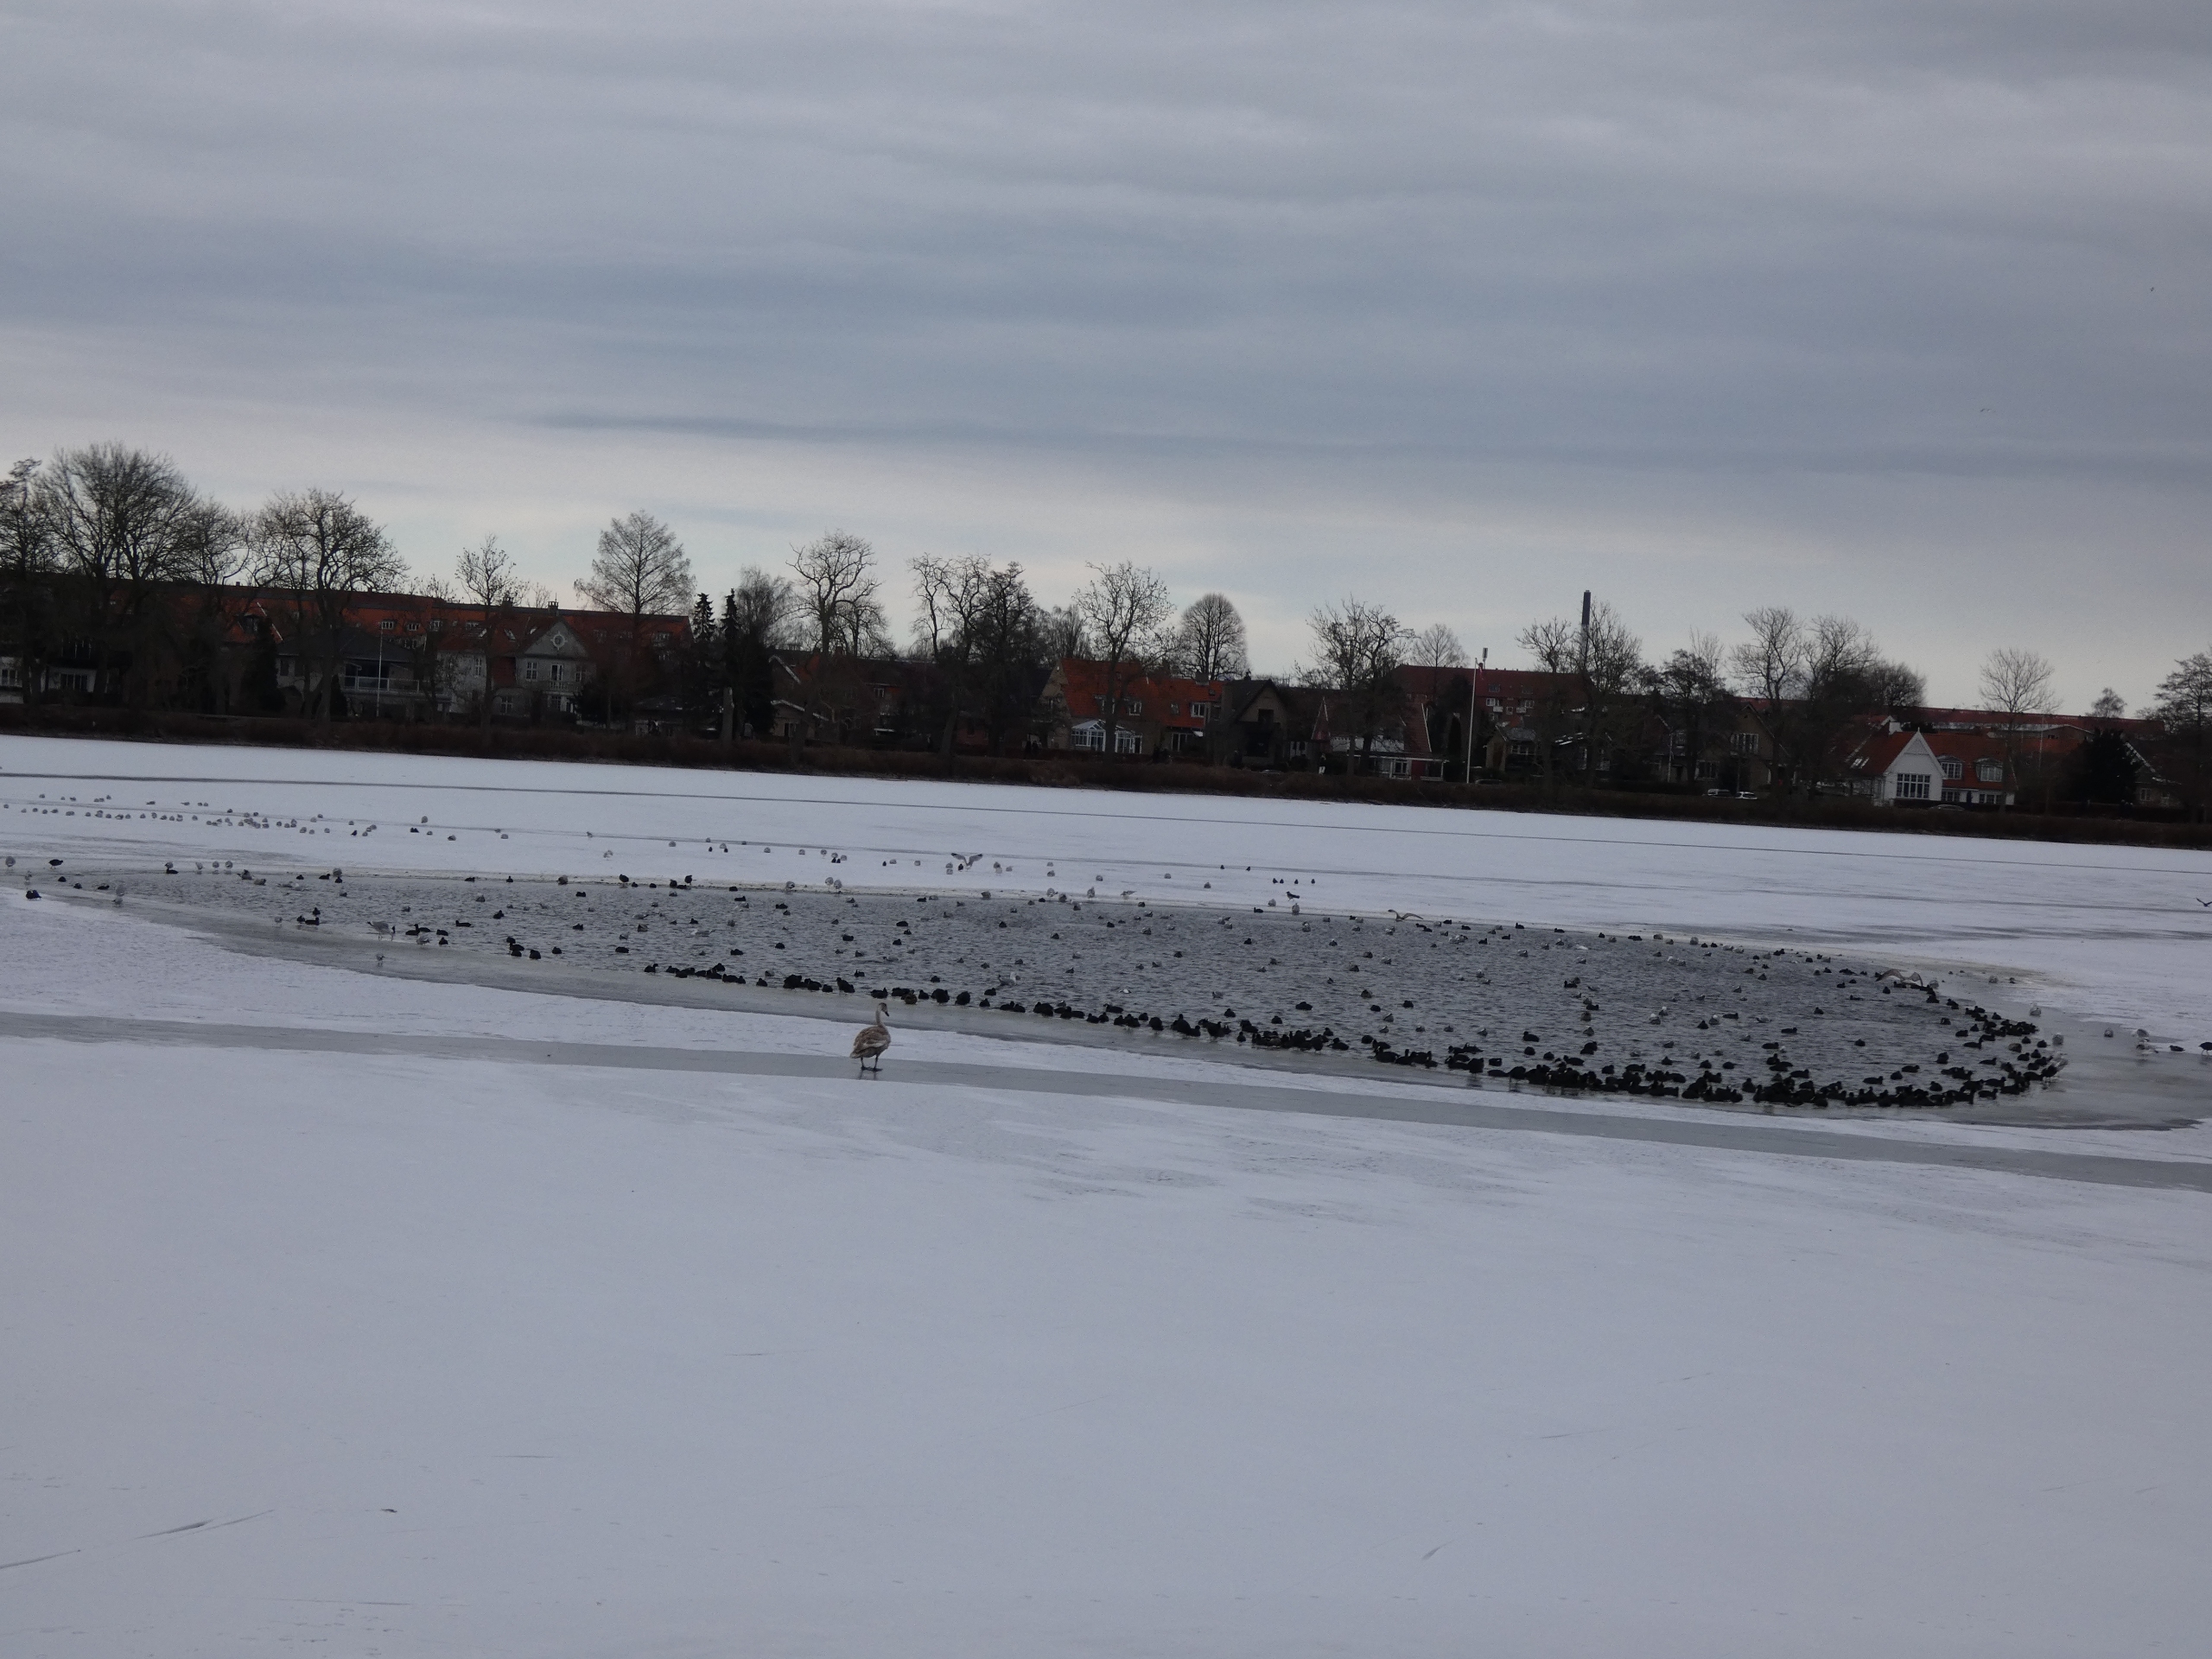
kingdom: Animalia
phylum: Chordata
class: Aves
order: Anseriformes
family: Anatidae
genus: Aythya
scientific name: Aythya ferina
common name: Taffeland
